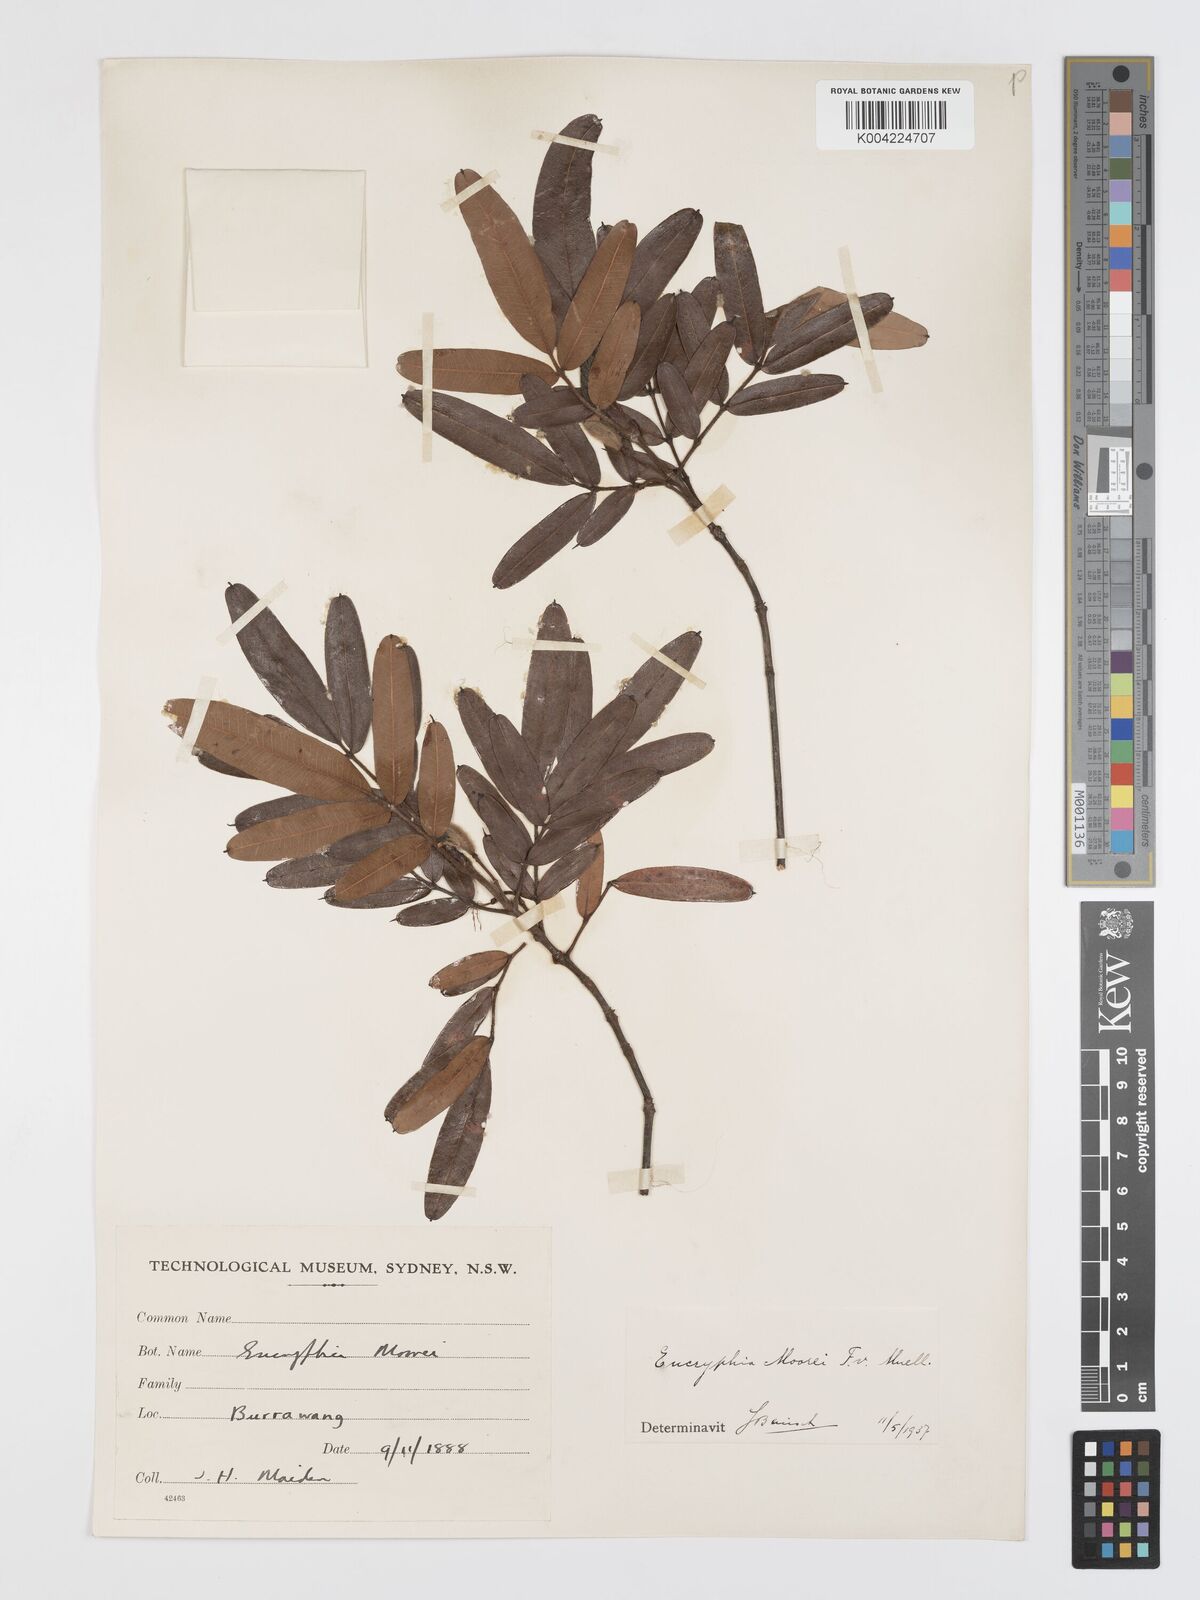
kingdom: Plantae
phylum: Tracheophyta
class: Magnoliopsida
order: Oxalidales
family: Cunoniaceae
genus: Eucryphia
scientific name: Eucryphia moorei
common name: Acacia-plum
